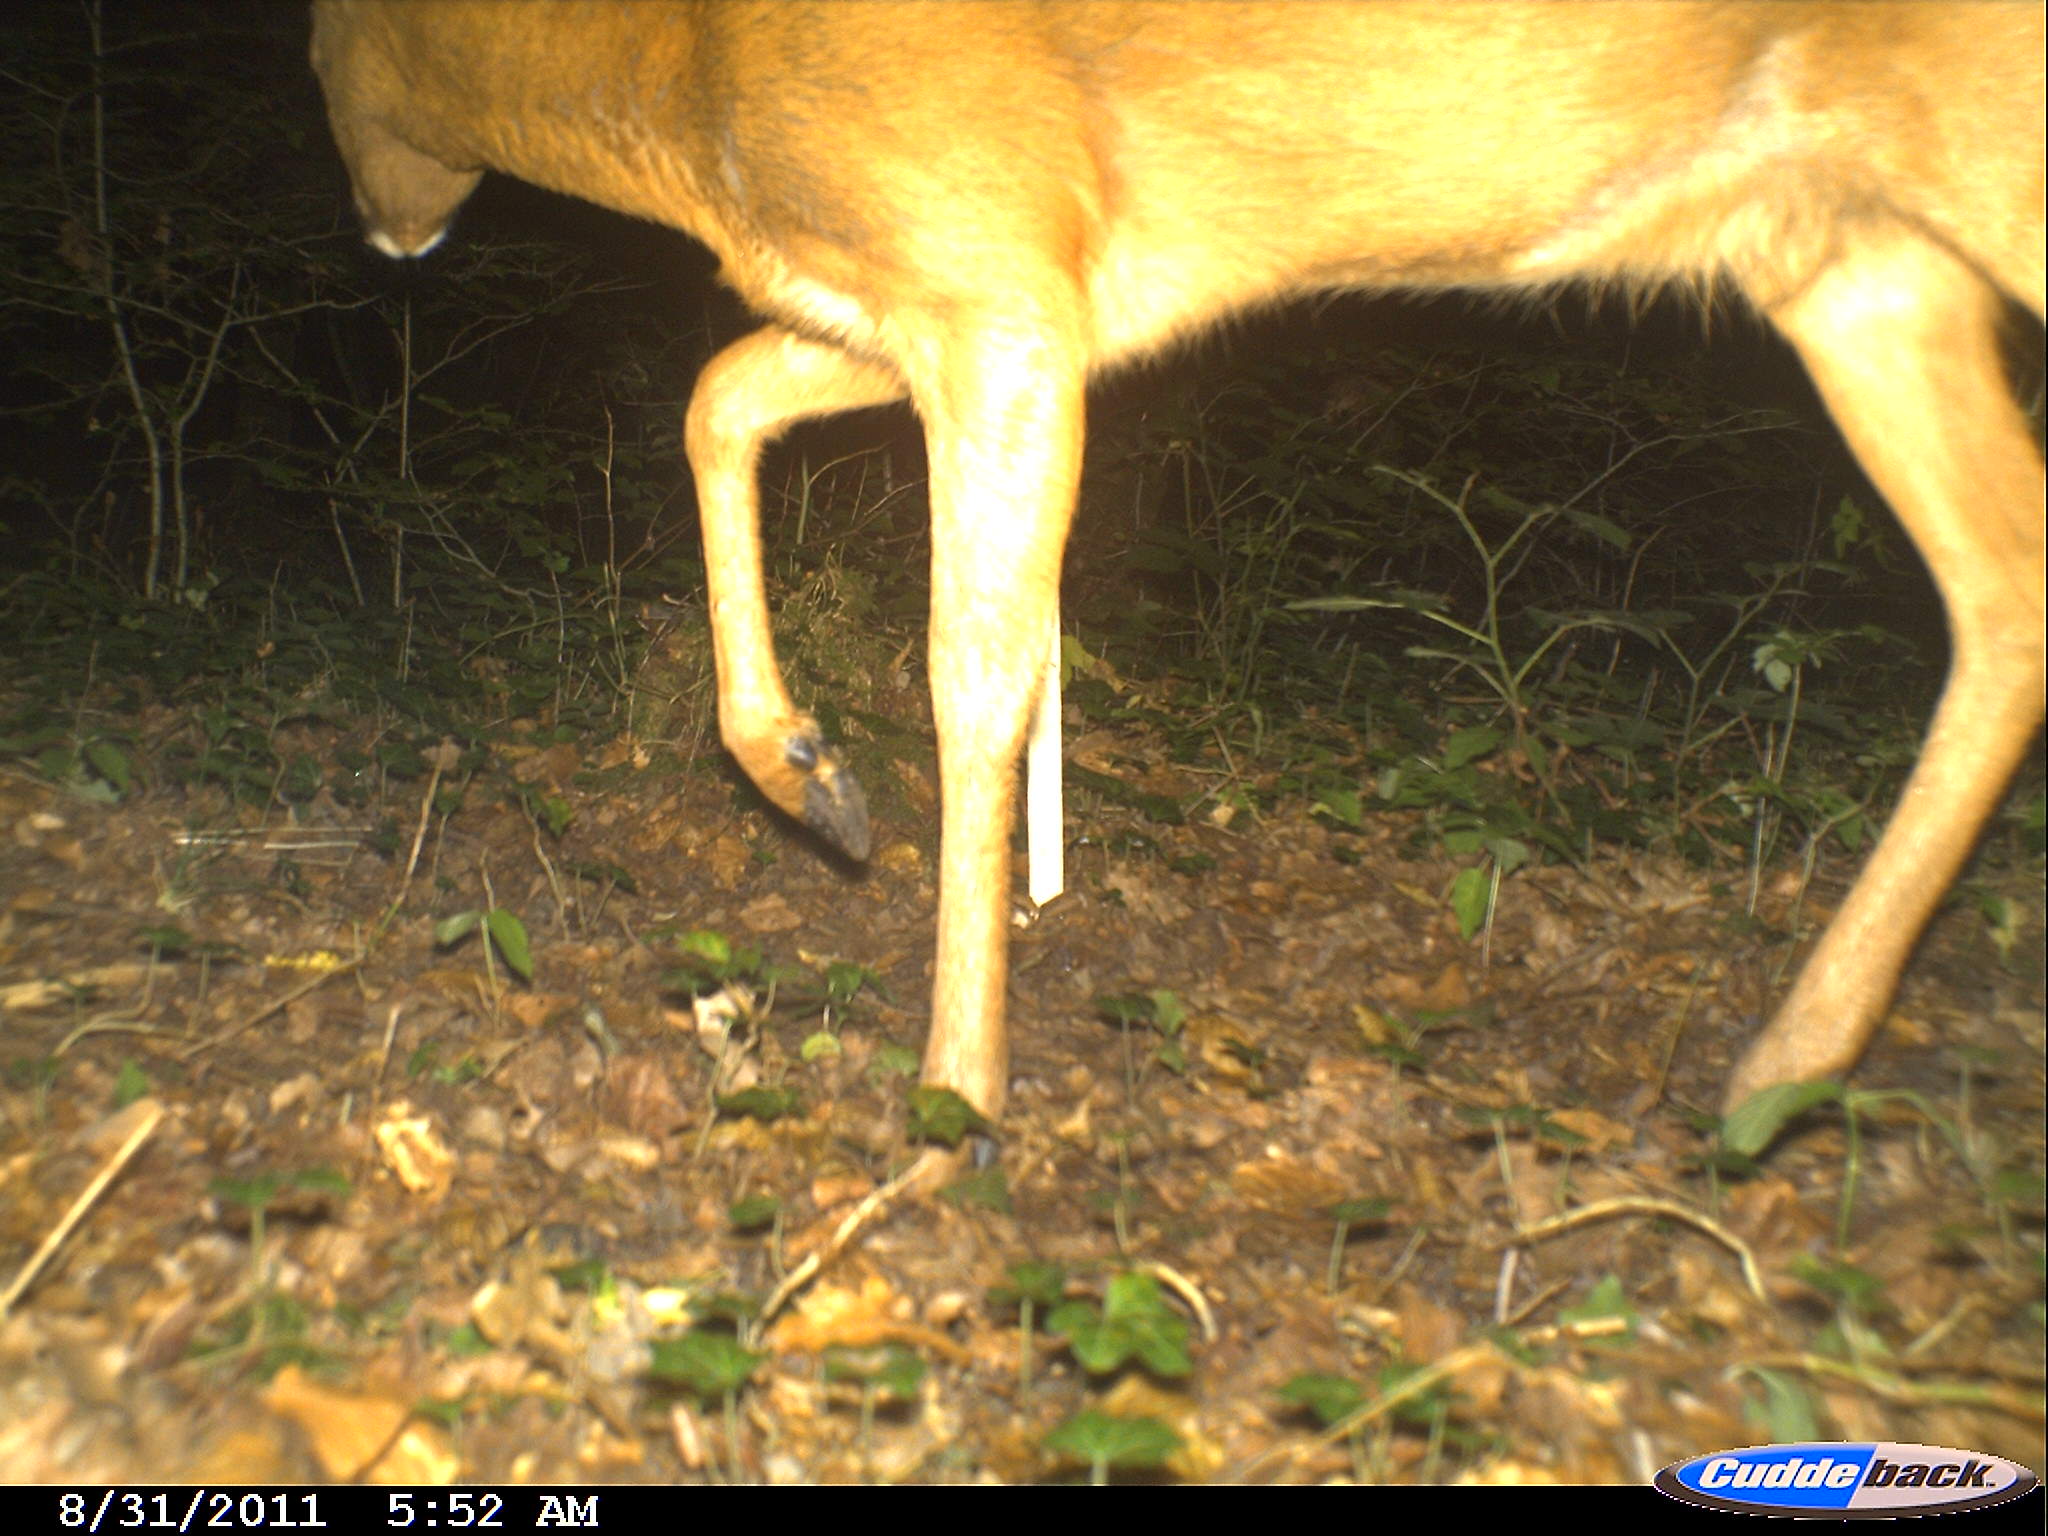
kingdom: Animalia
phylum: Chordata
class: Mammalia
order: Artiodactyla
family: Cervidae
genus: Capreolus
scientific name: Capreolus capreolus
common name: Western roe deer
